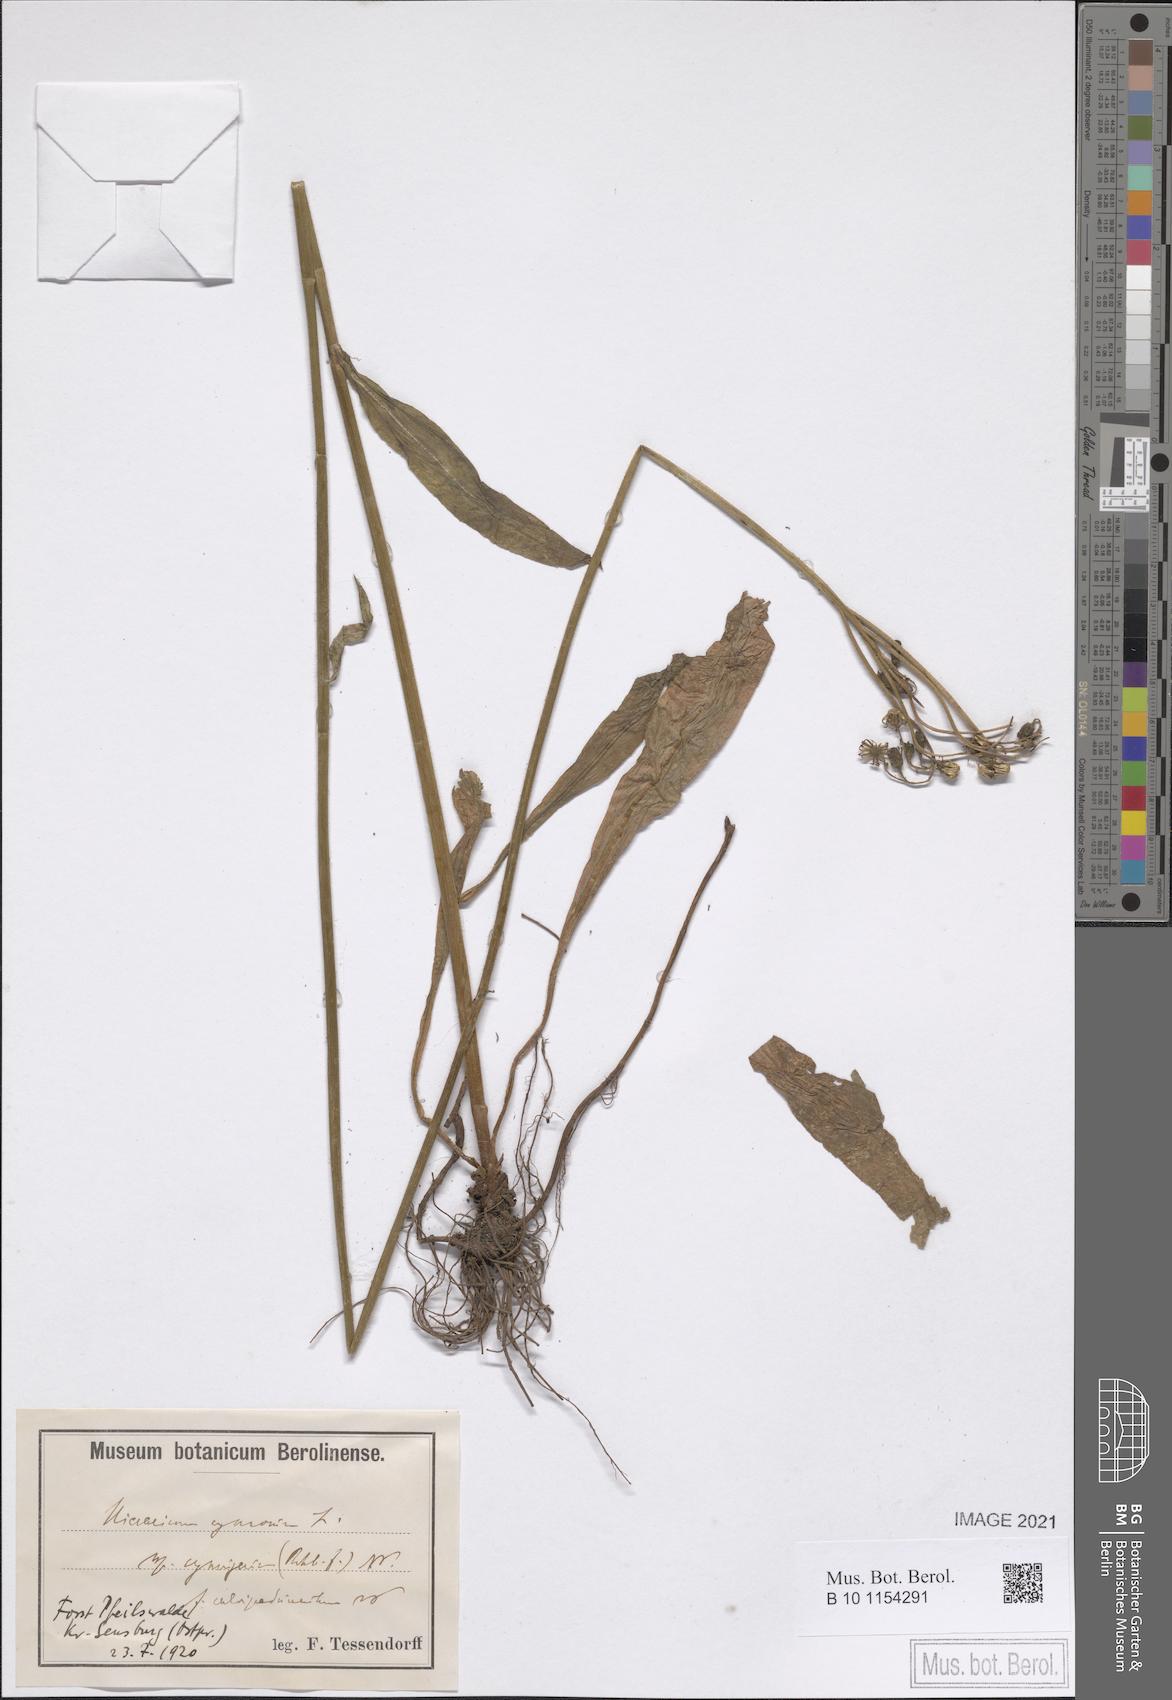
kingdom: Plantae
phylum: Tracheophyta
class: Magnoliopsida
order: Asterales
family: Asteraceae
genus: Pilosella
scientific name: Pilosella cymosa
